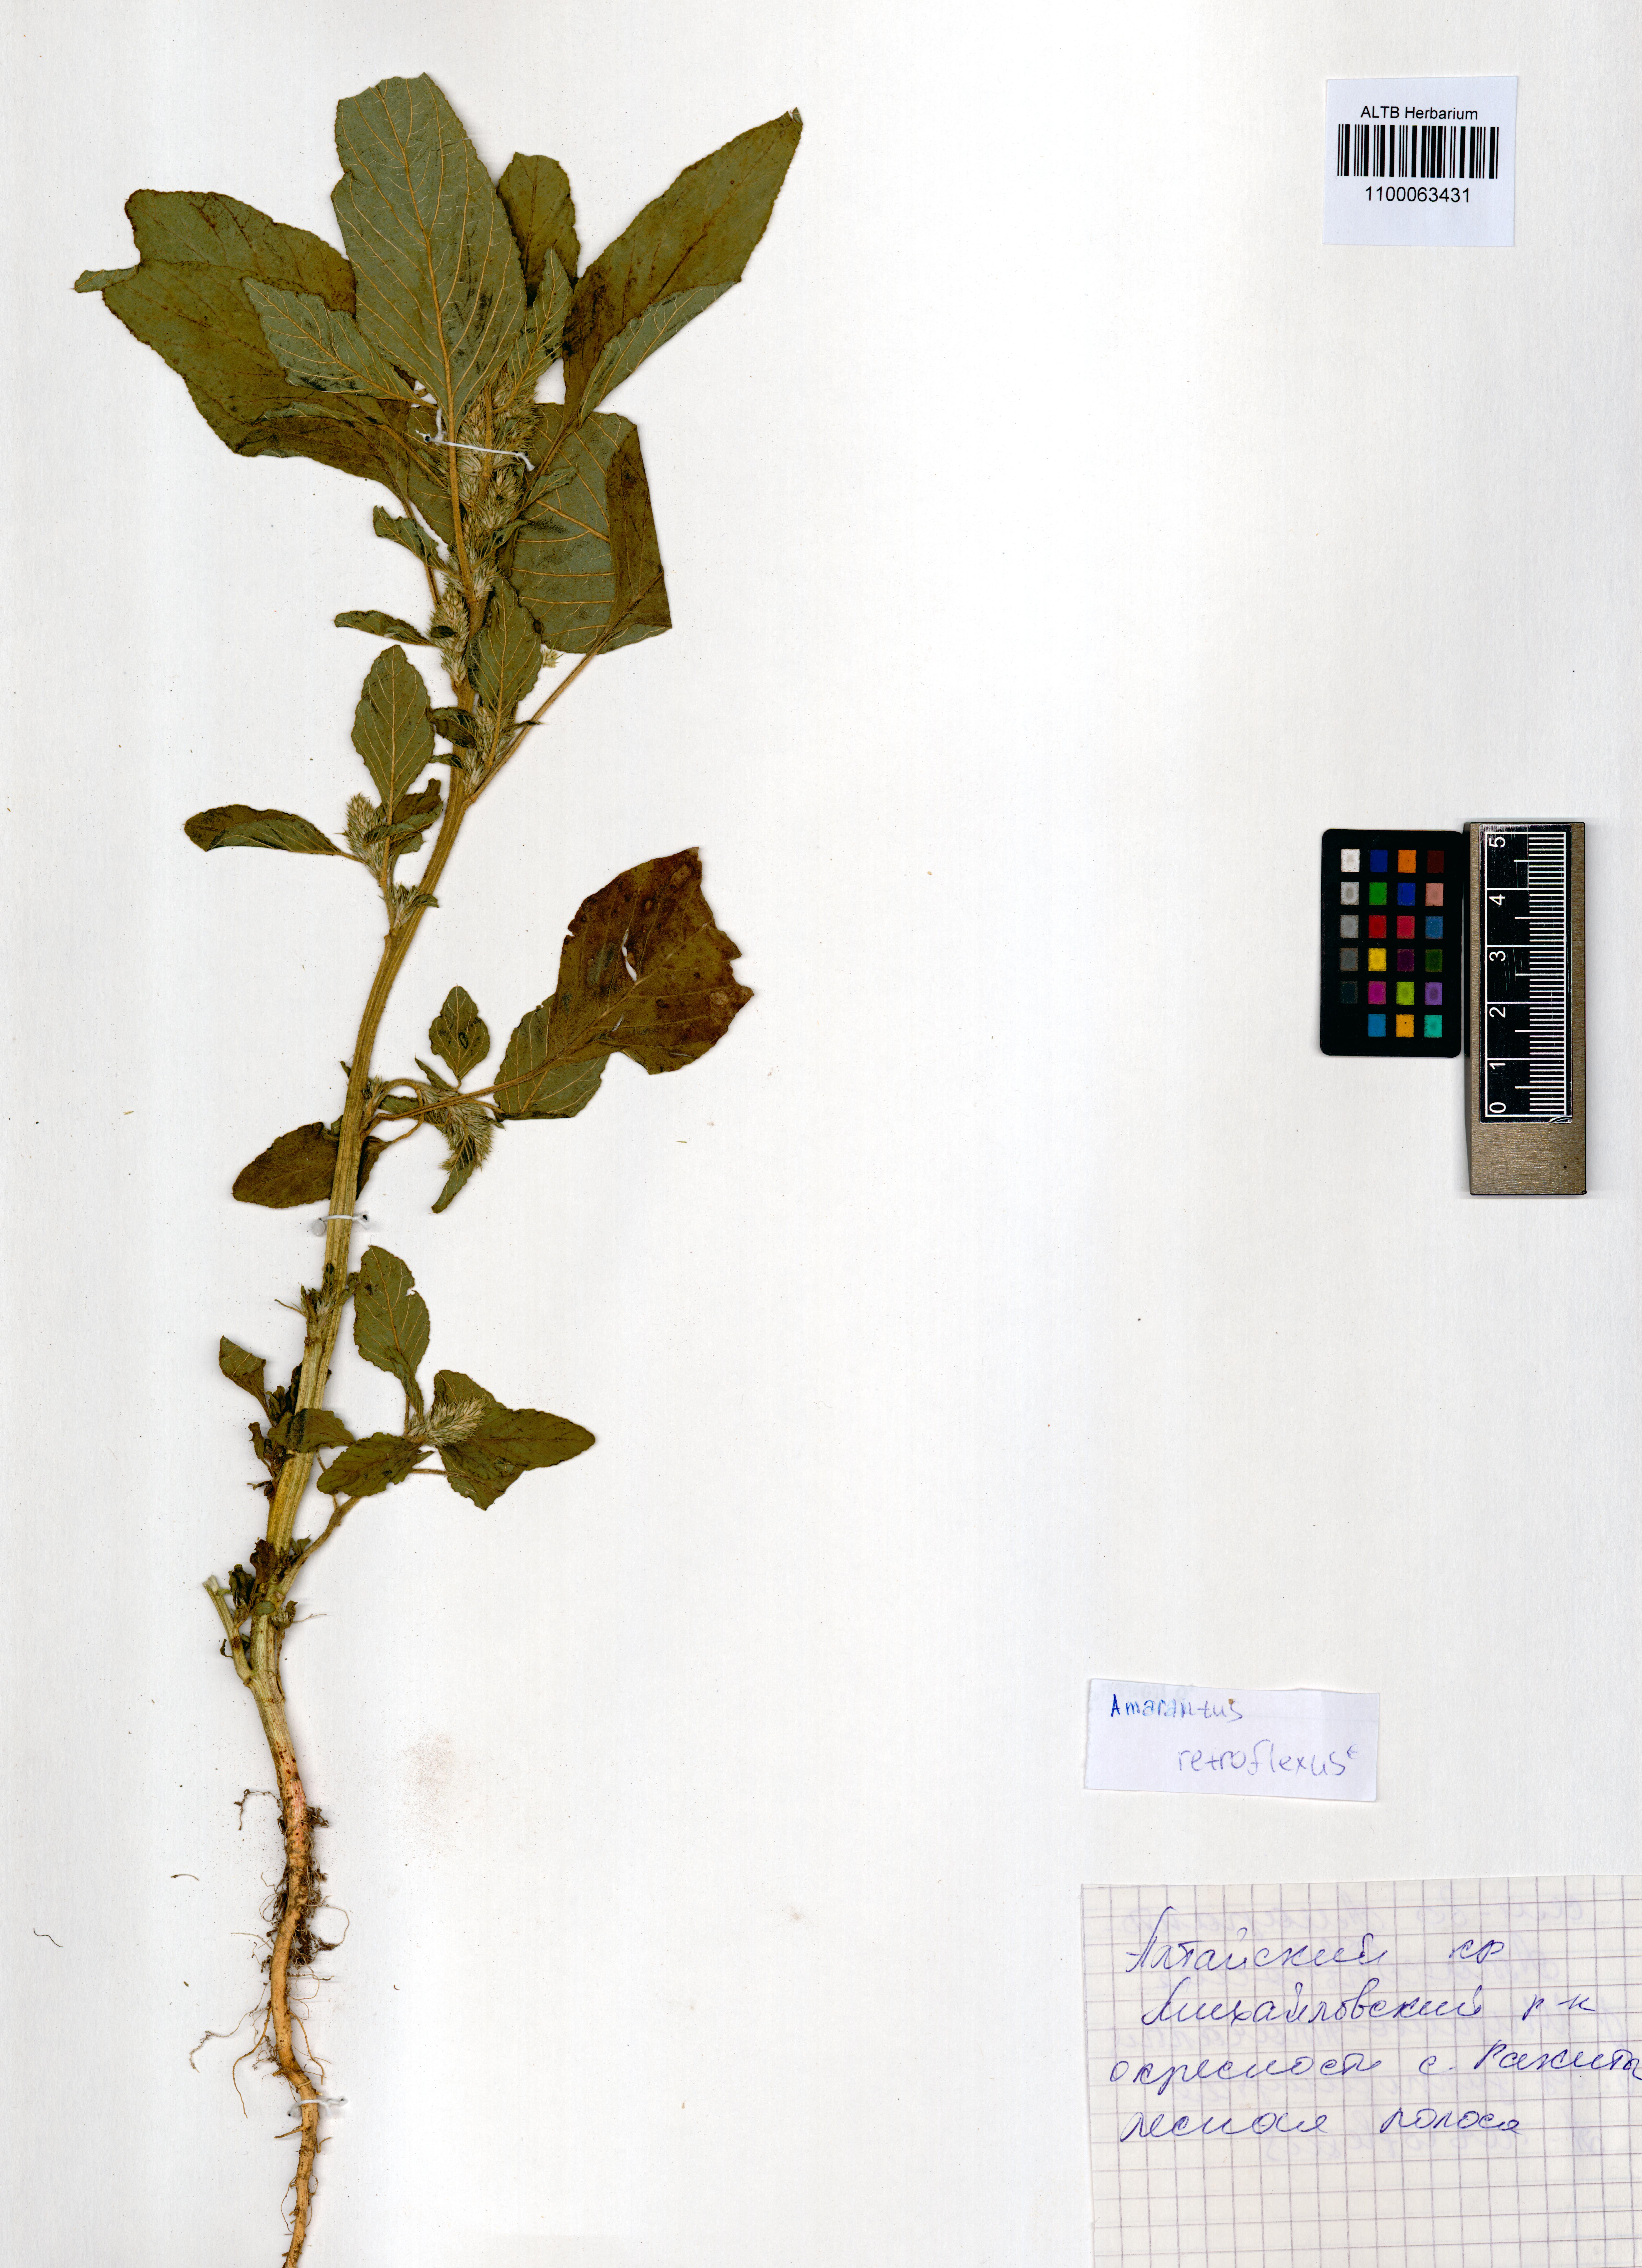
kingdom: Plantae
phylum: Tracheophyta
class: Magnoliopsida
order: Caryophyllales
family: Amaranthaceae
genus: Amaranthus
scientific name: Amaranthus retroflexus
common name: Redroot amaranth
